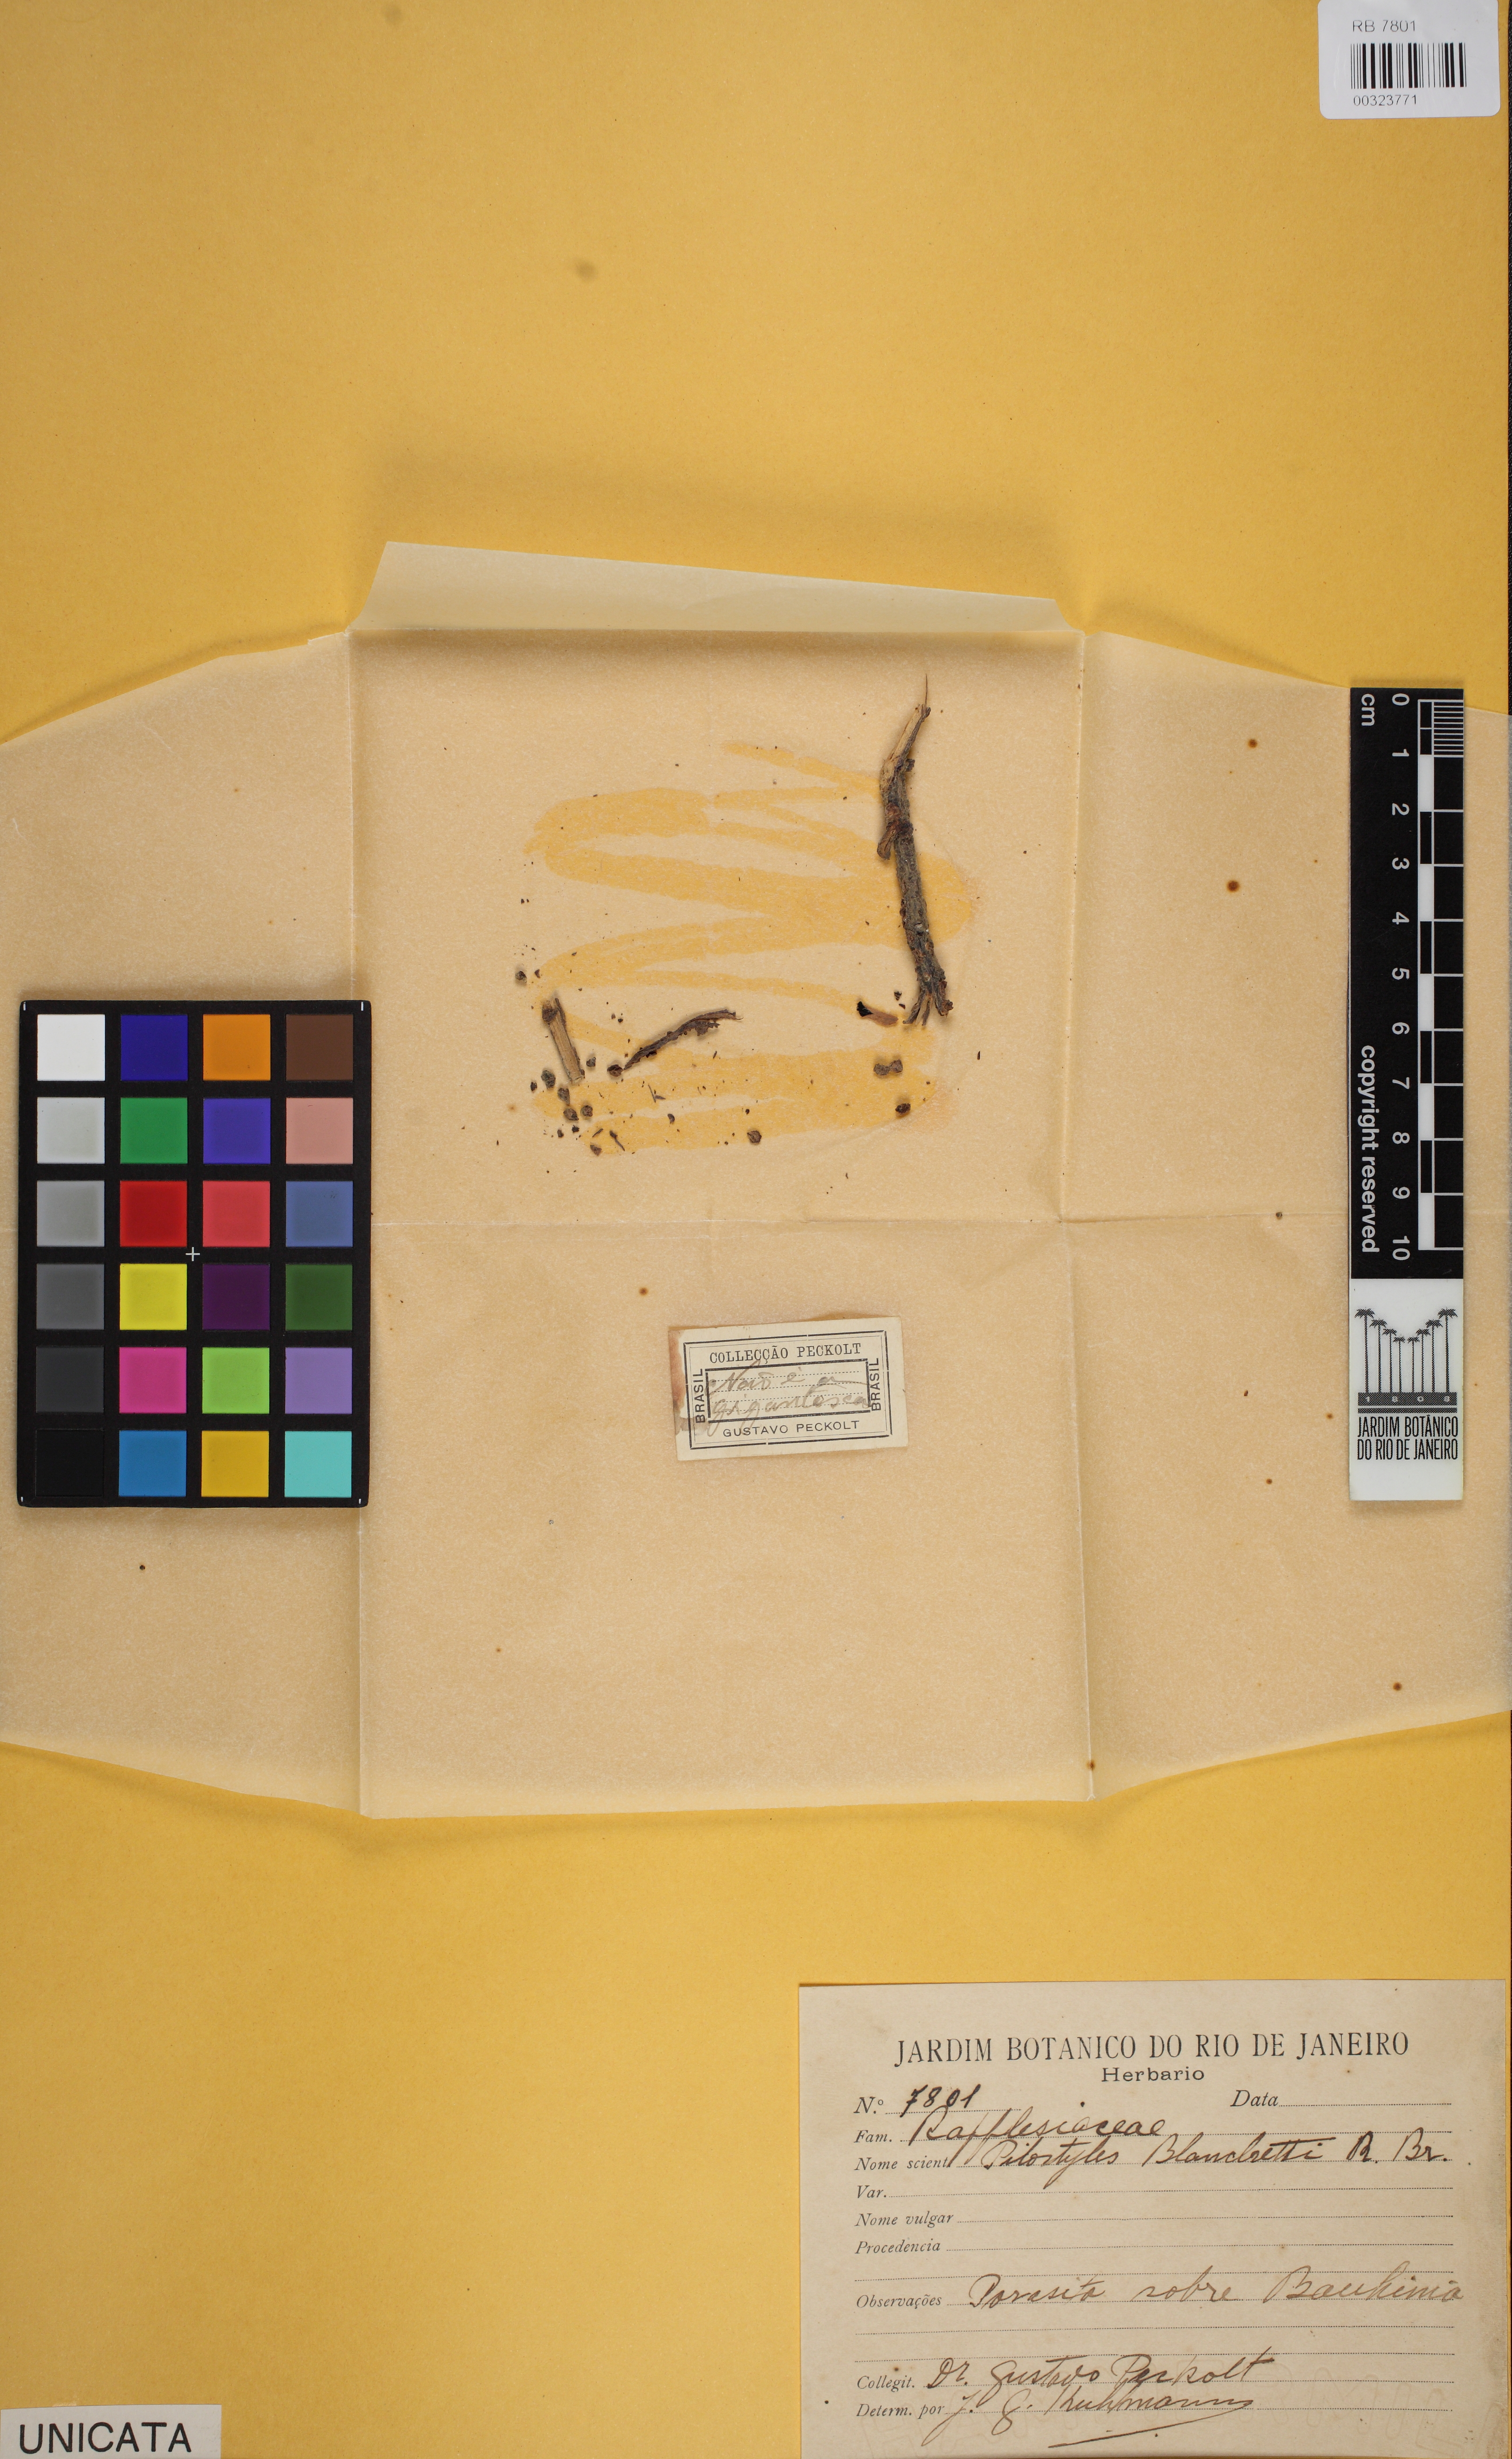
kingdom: Plantae
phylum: Tracheophyta
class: Magnoliopsida
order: Cucurbitales
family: Apodanthaceae
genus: Pilostyles
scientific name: Pilostyles blanchetii
